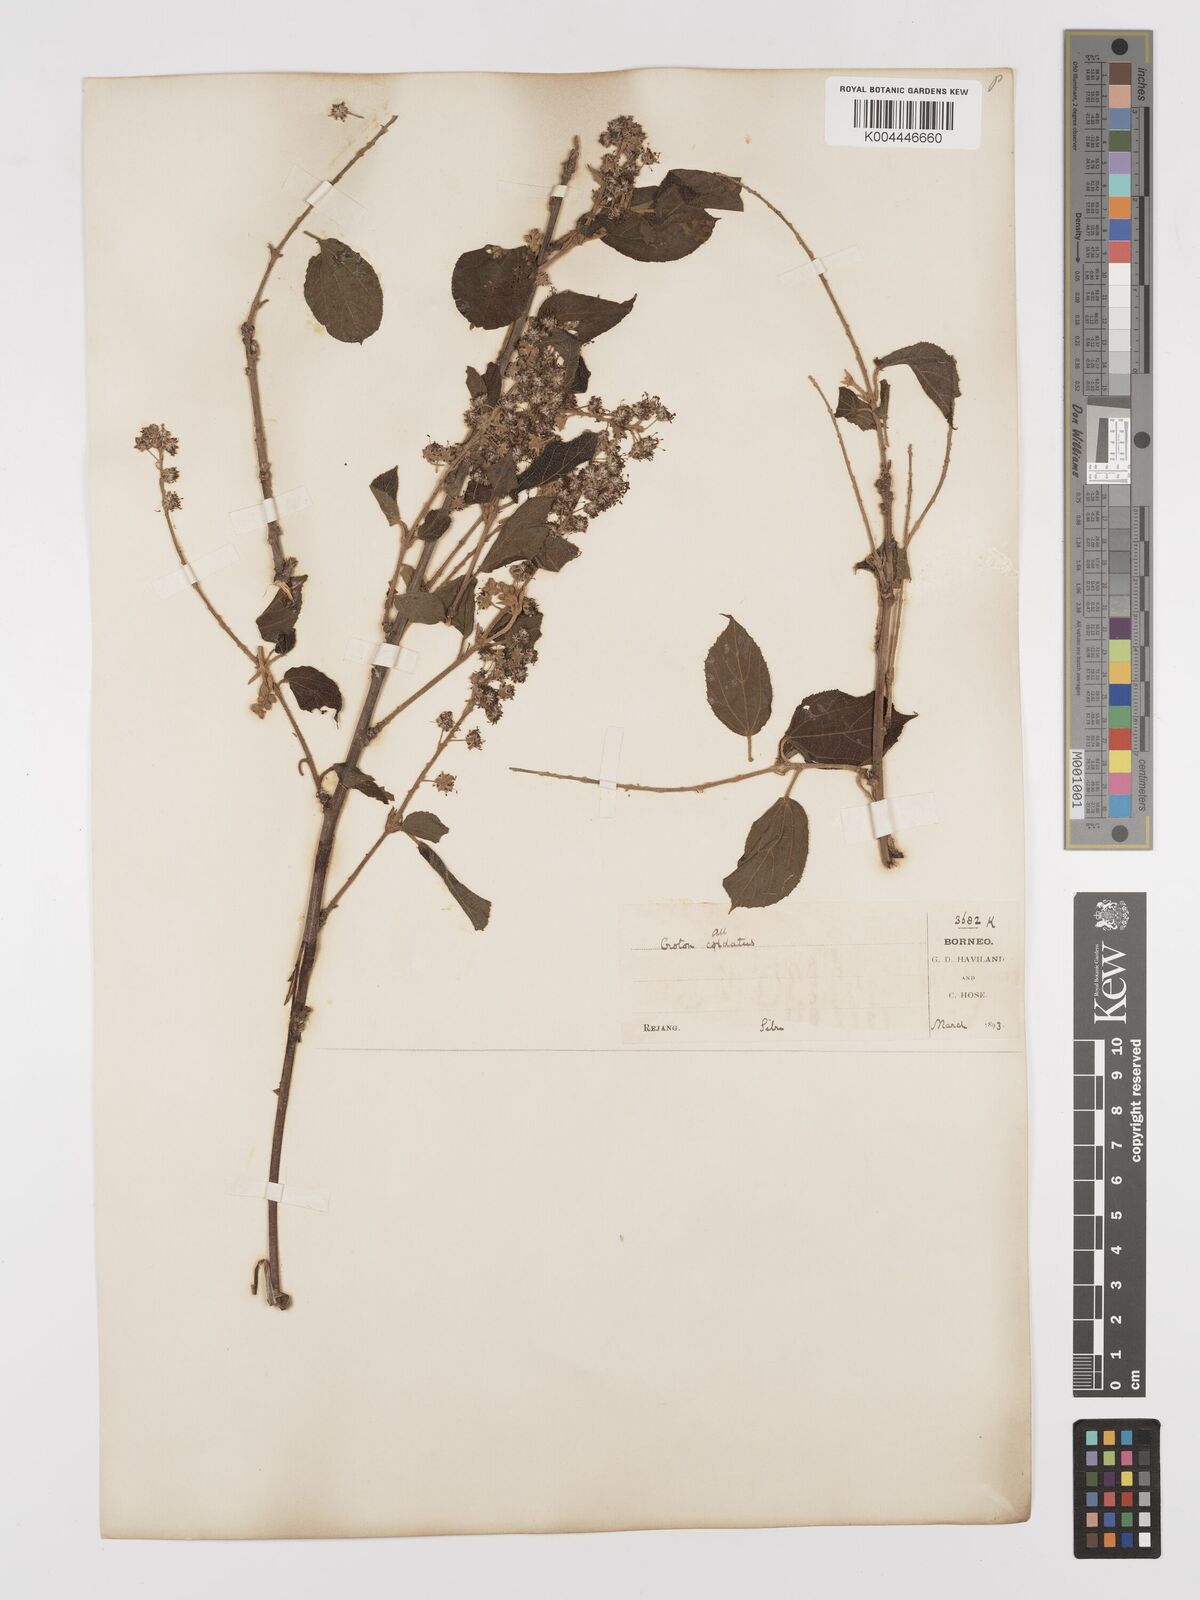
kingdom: Plantae
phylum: Tracheophyta
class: Magnoliopsida
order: Malpighiales
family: Euphorbiaceae
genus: Croton
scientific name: Croton caudatus
